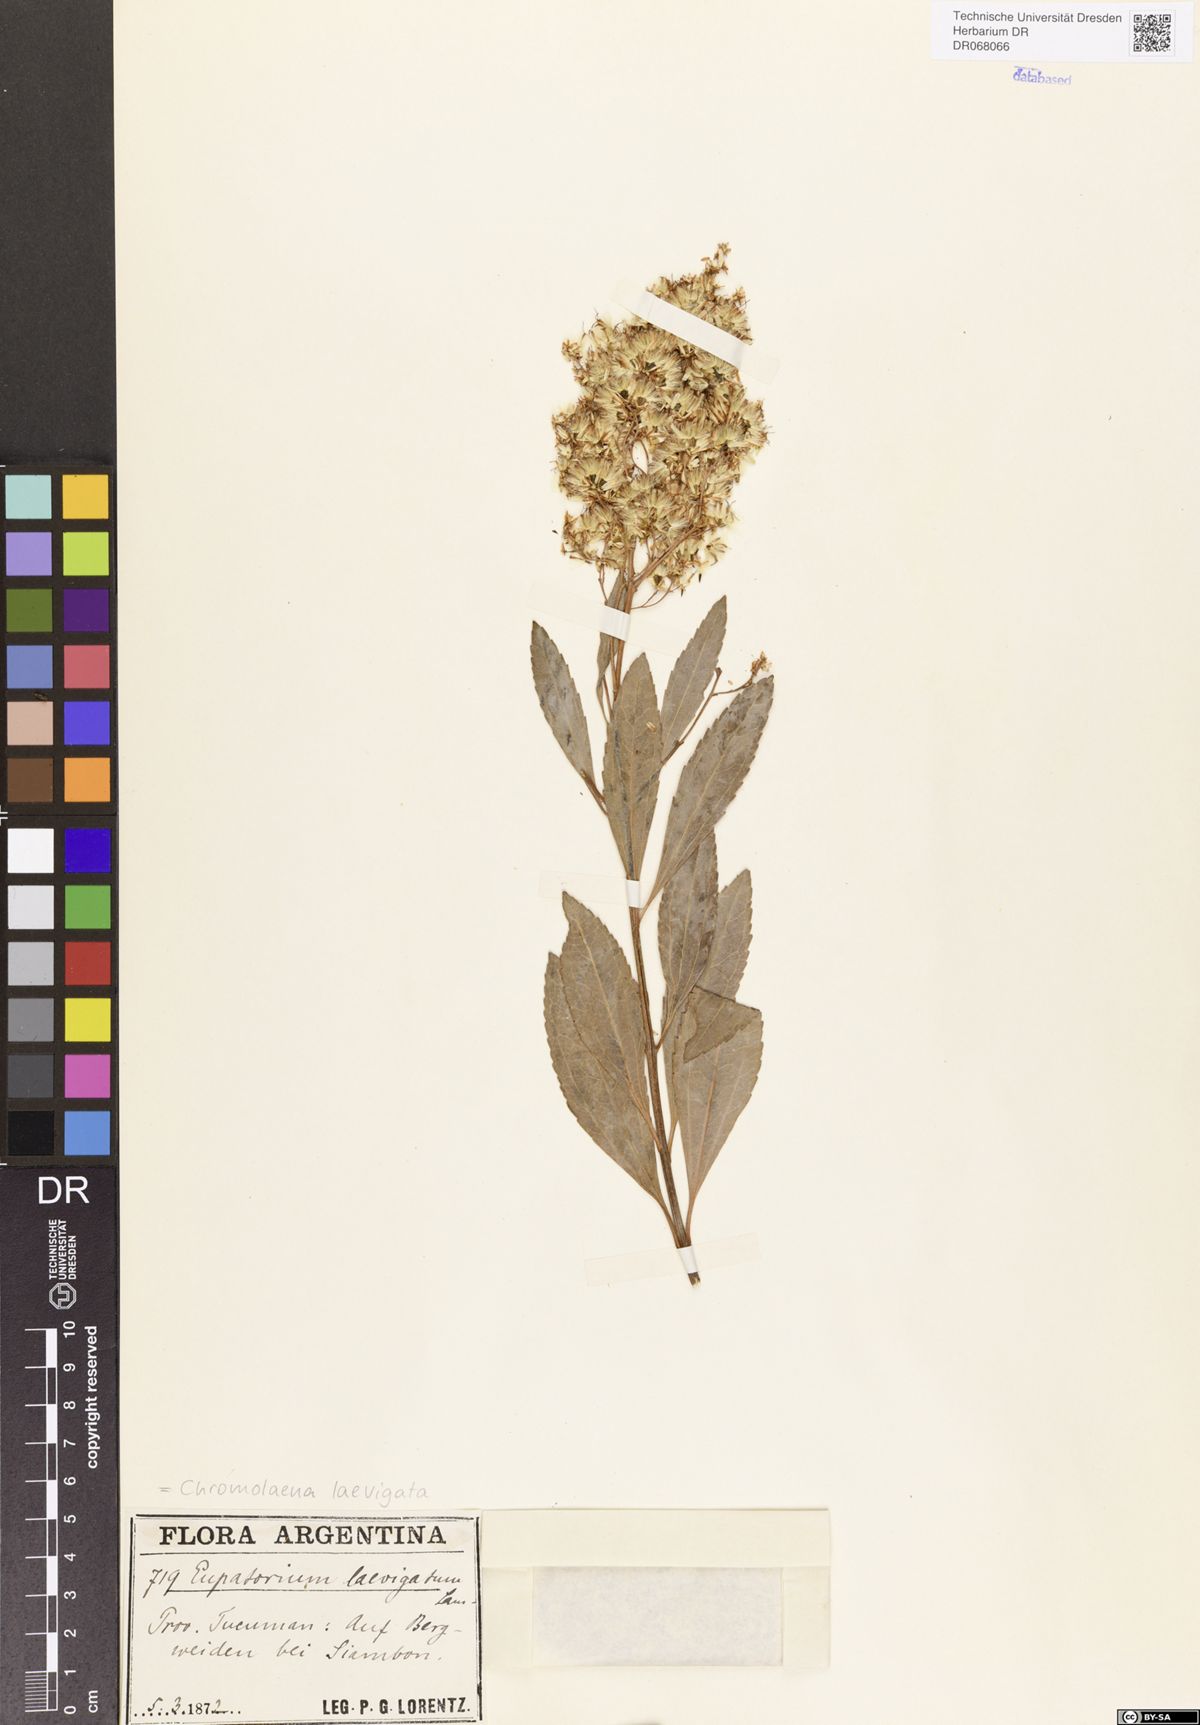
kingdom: Plantae
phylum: Tracheophyta
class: Magnoliopsida
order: Asterales
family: Asteraceae
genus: Trichogonia
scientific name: Trichogonia crenulata
